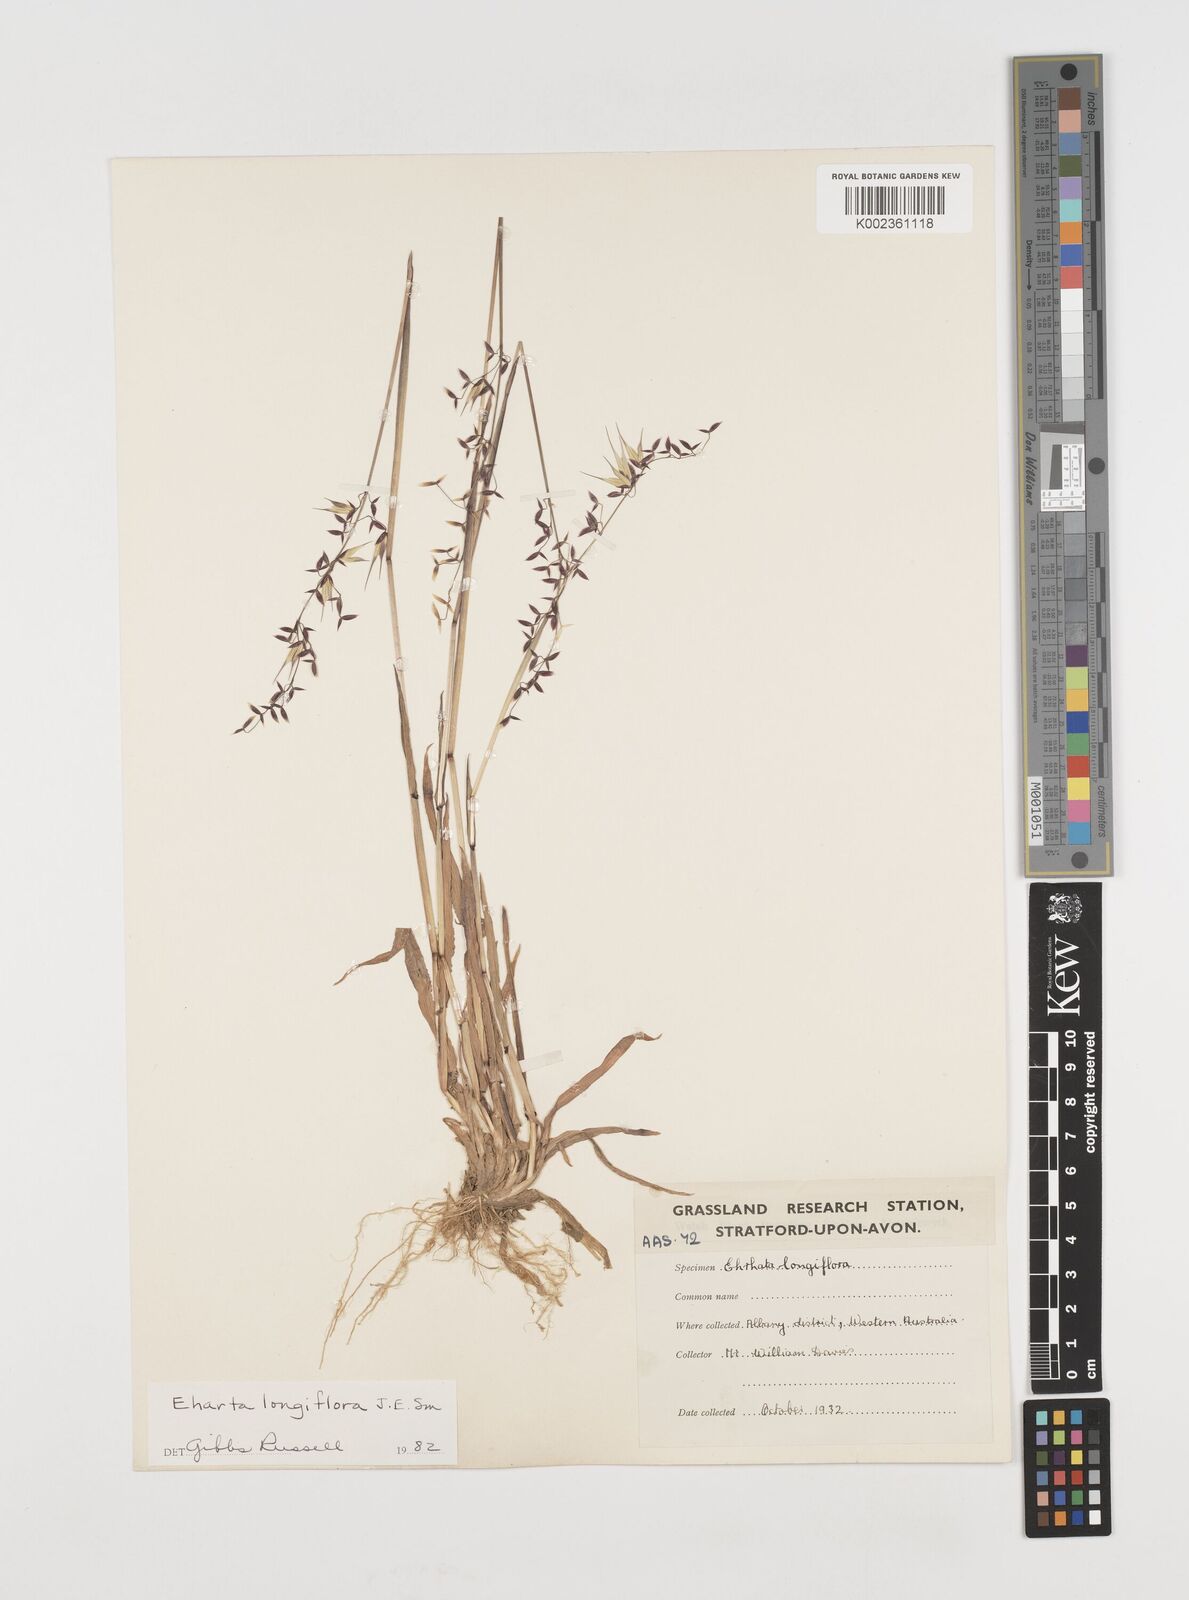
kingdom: Plantae
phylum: Tracheophyta
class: Liliopsida
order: Poales
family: Poaceae
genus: Ehrharta
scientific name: Ehrharta longiflora
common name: Longflowered veldtgrass
